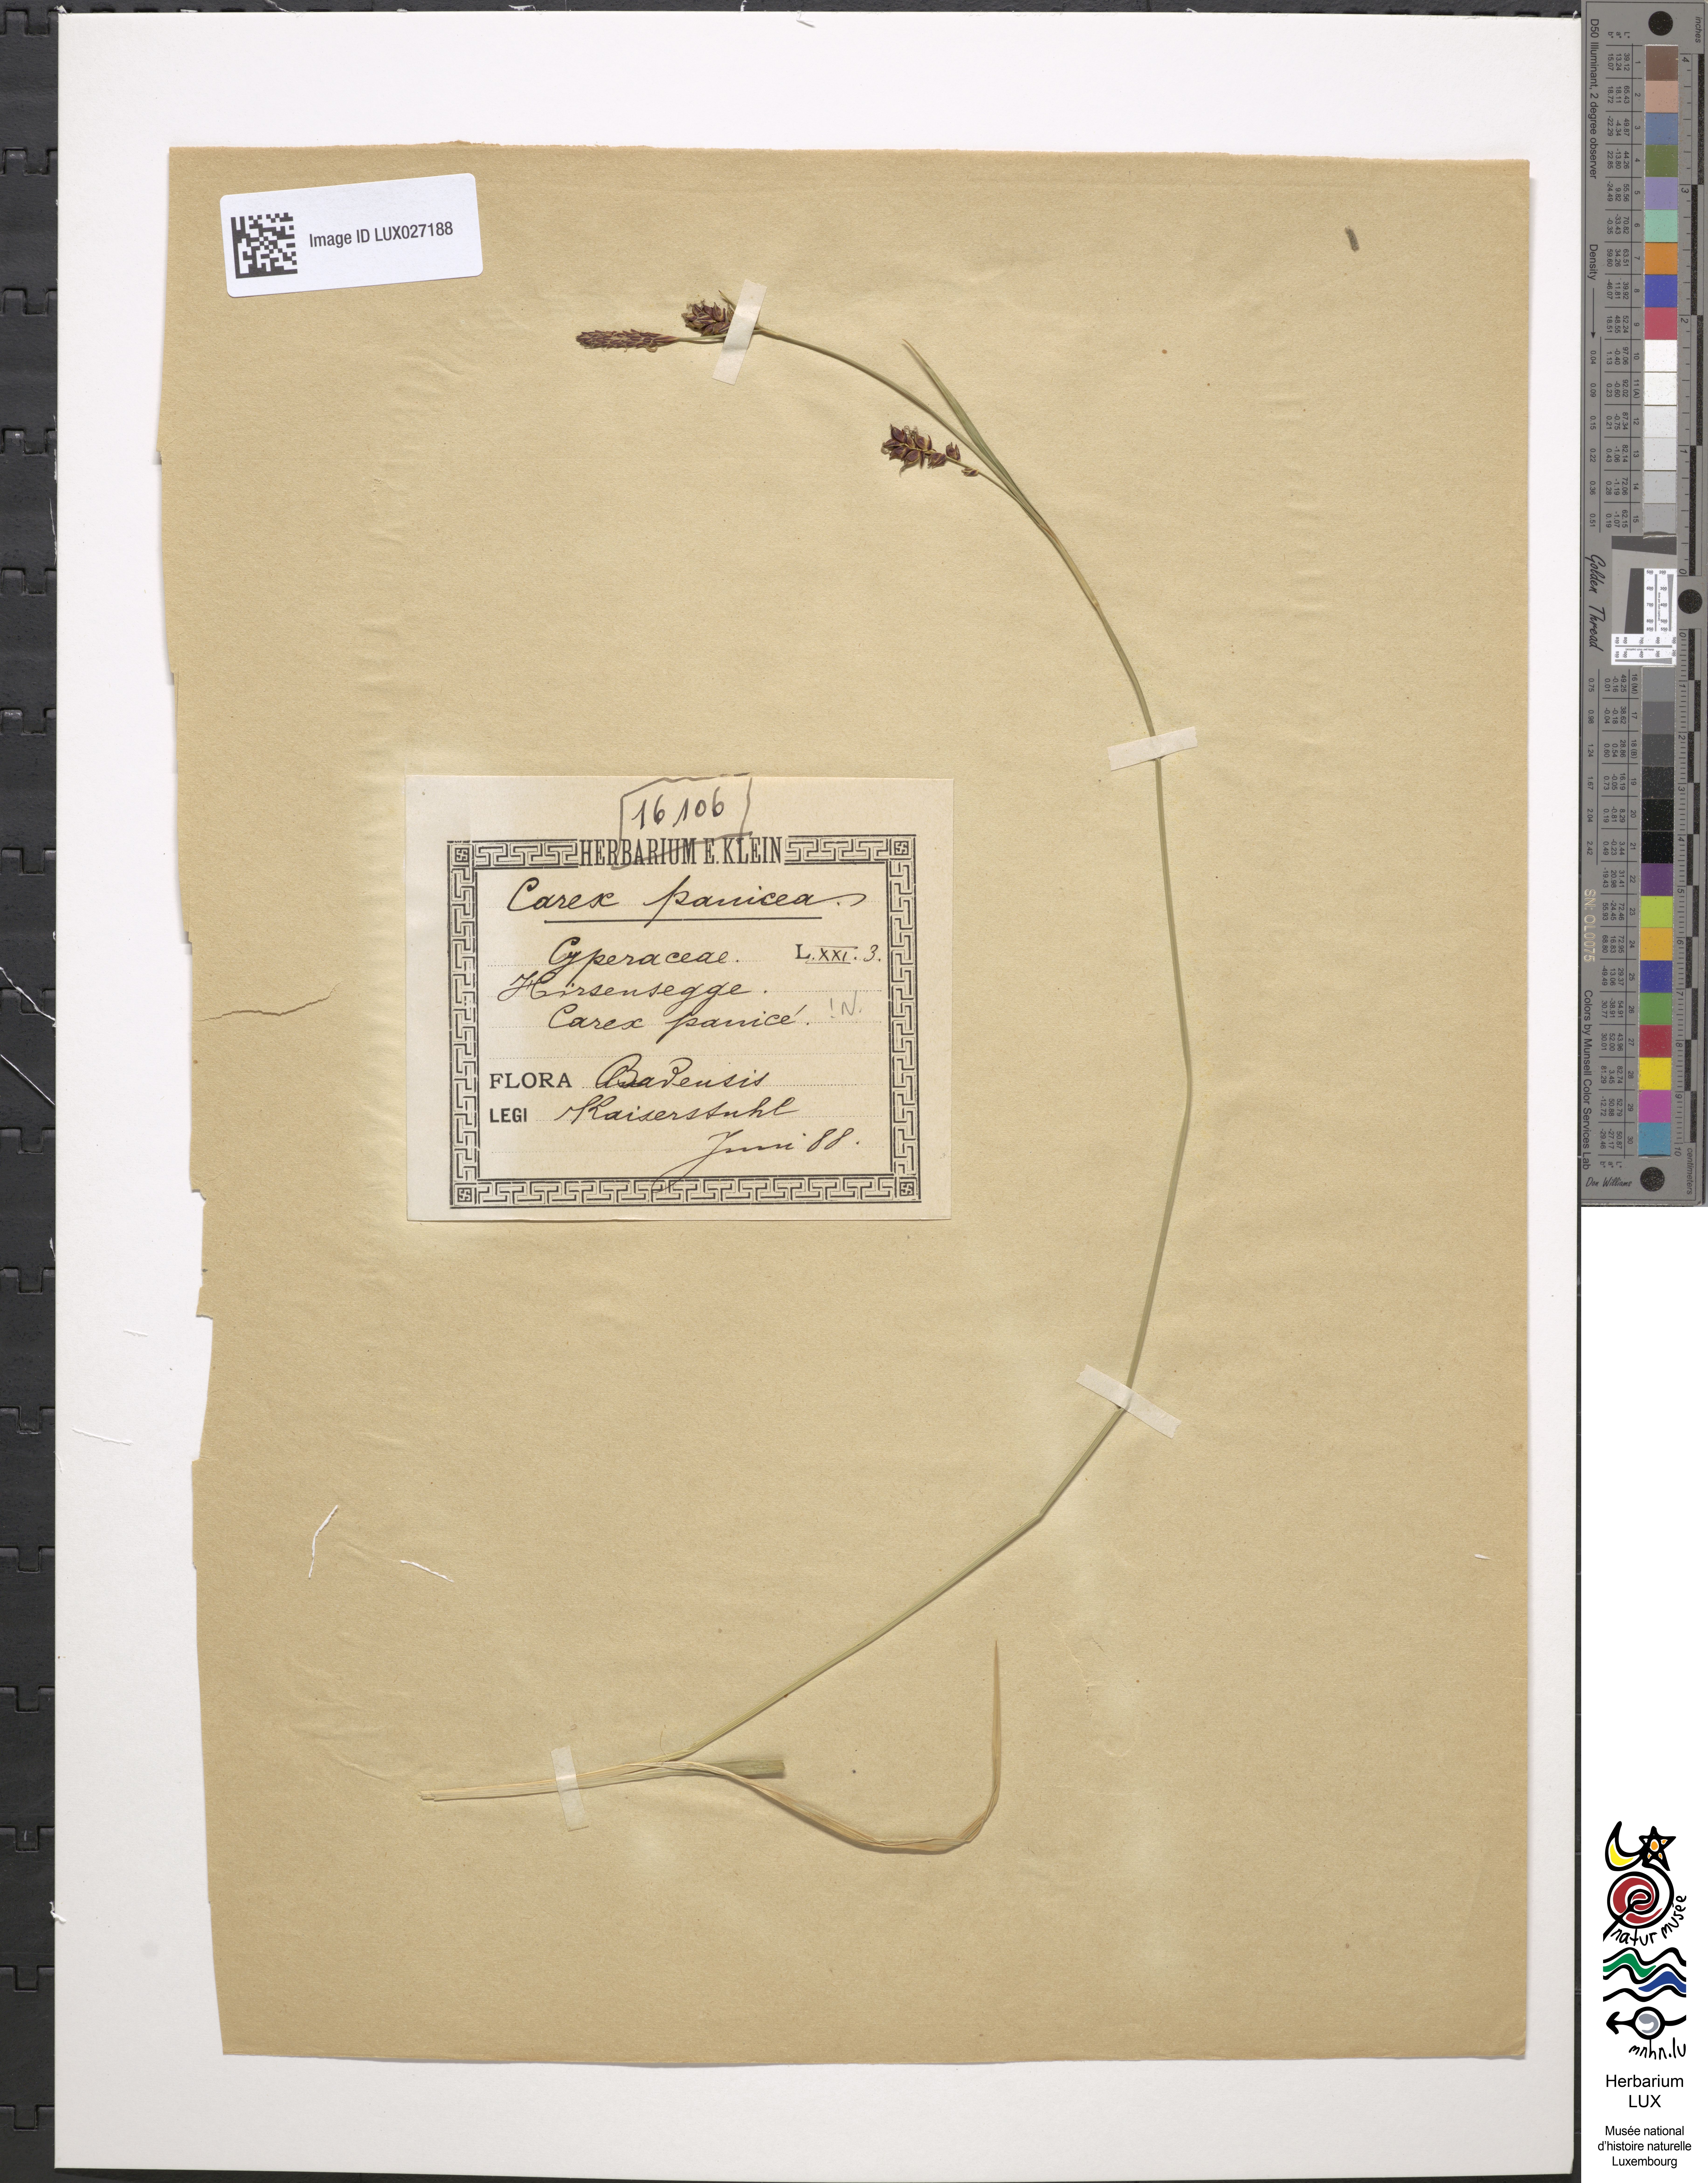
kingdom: Plantae
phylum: Tracheophyta
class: Liliopsida
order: Poales
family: Cyperaceae
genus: Carex
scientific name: Carex panicea
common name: Carnation sedge
